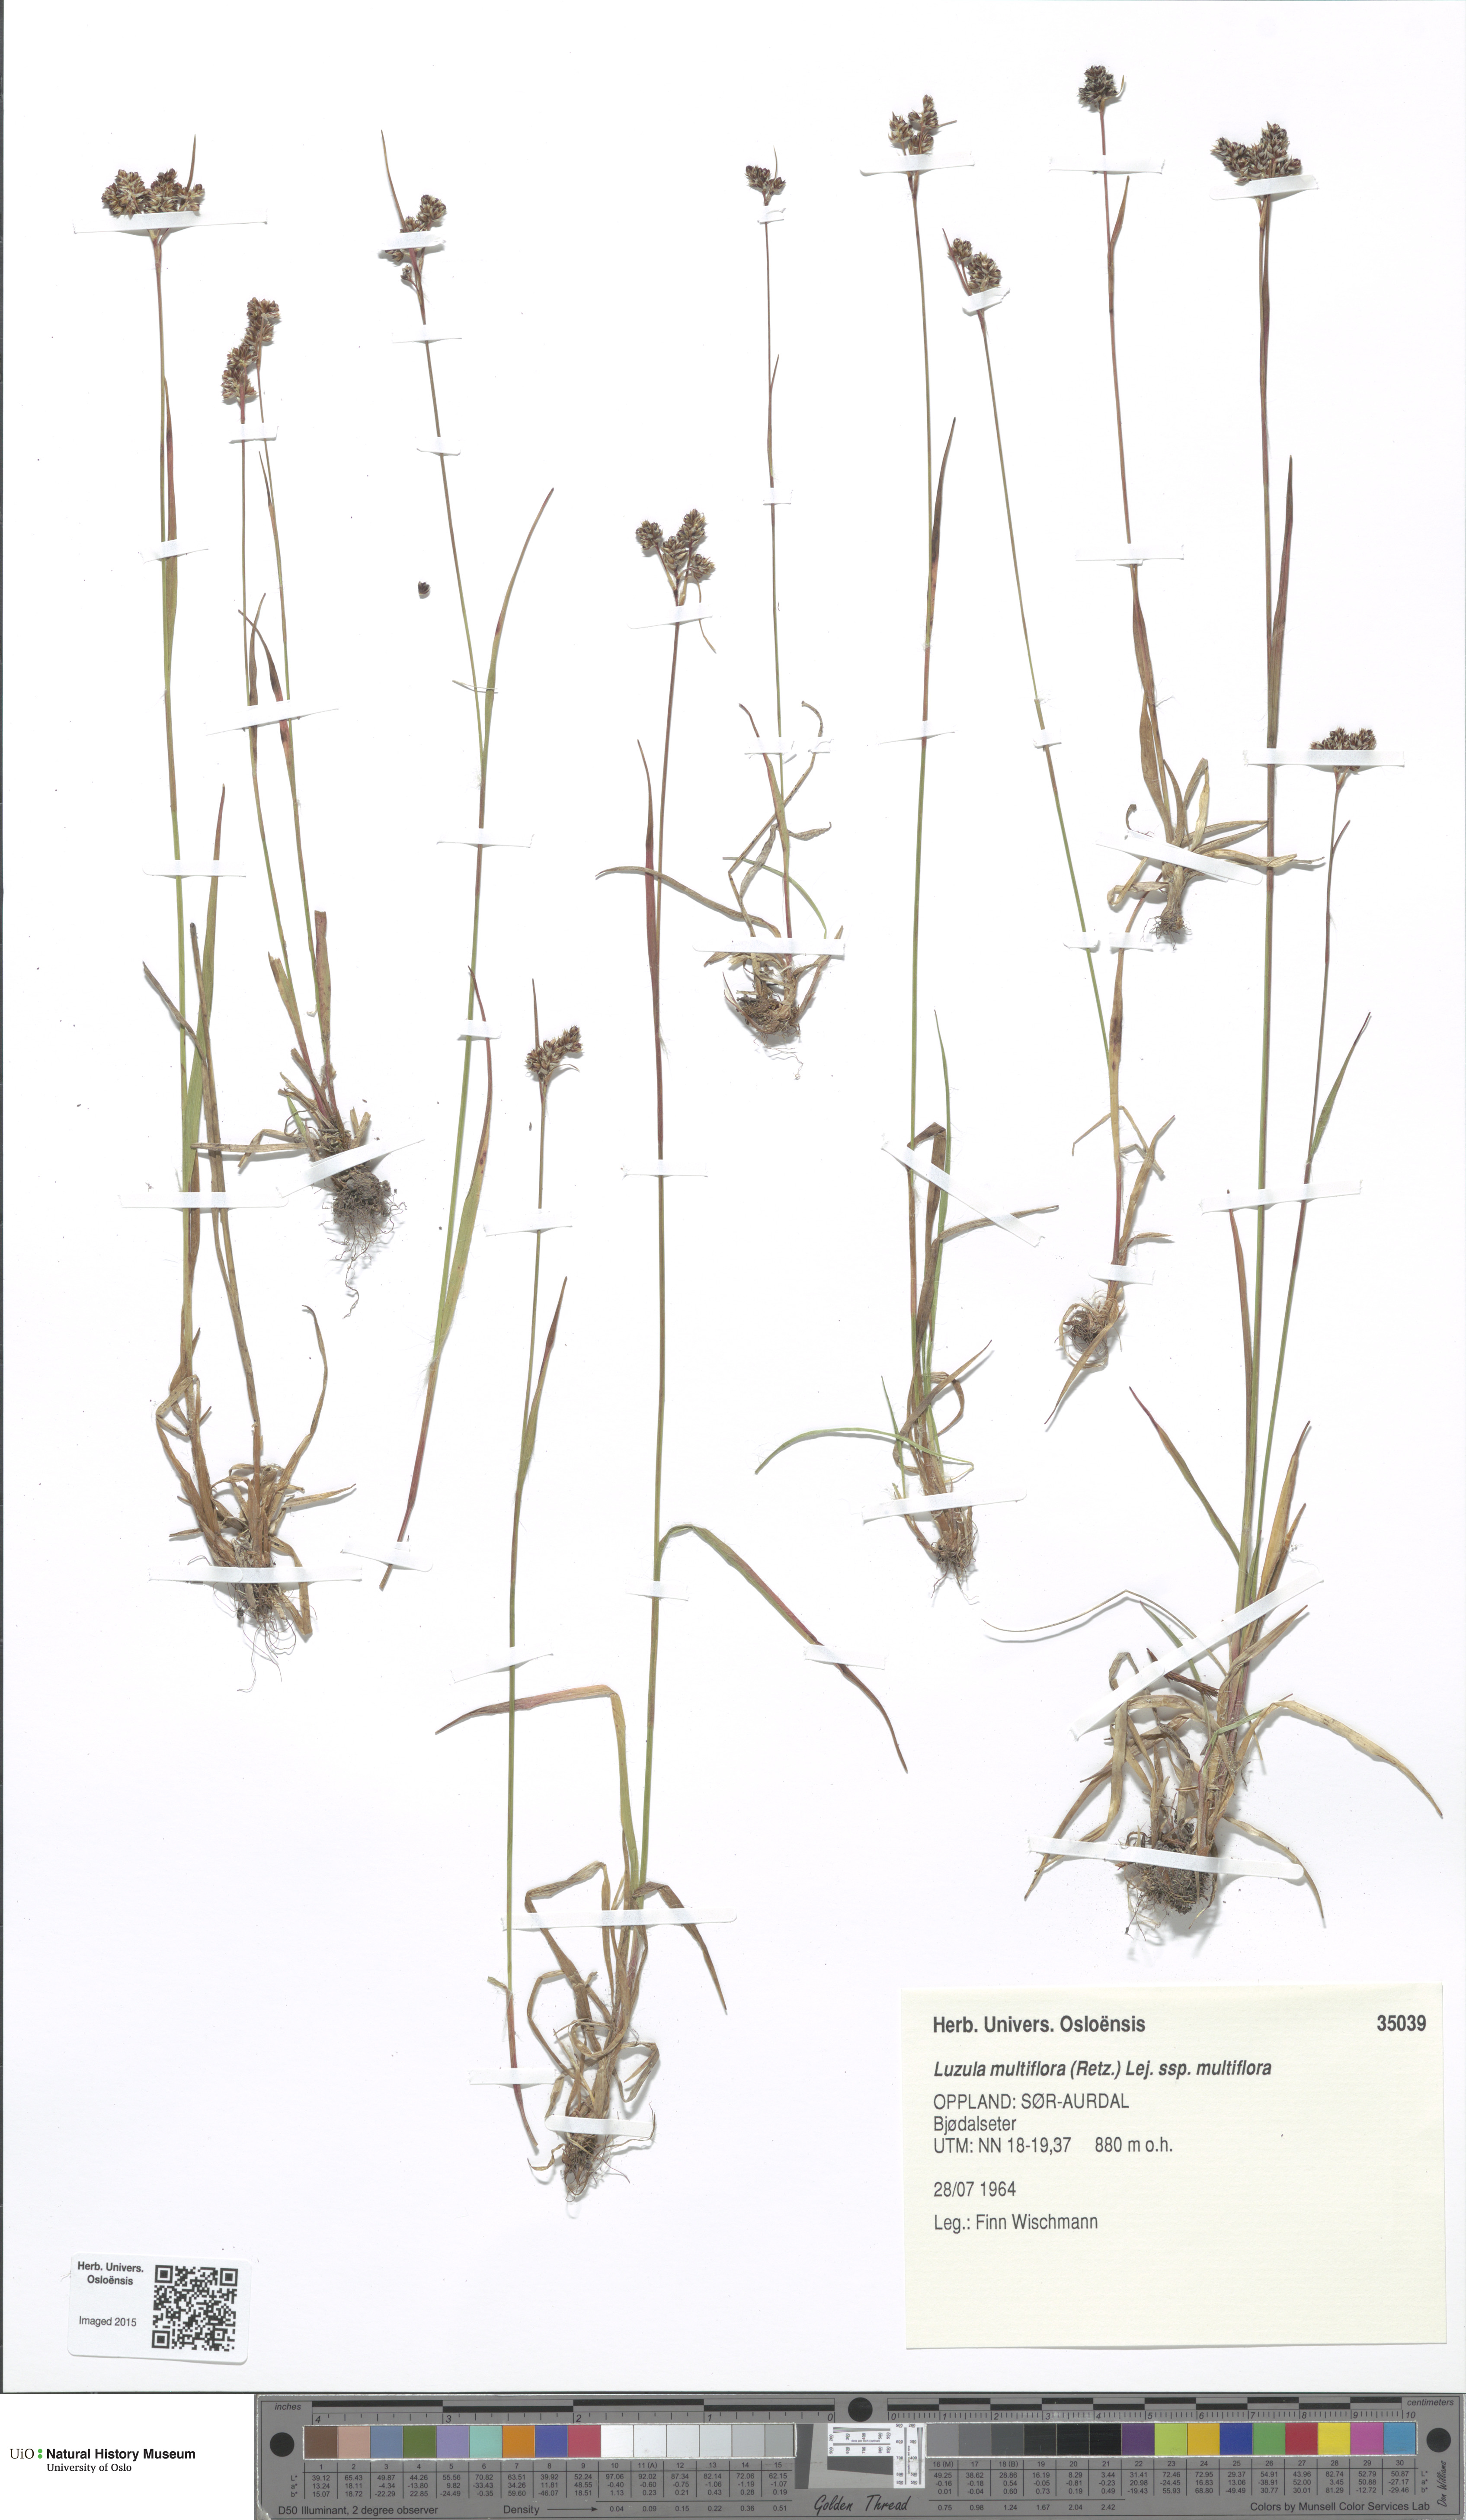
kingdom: Plantae
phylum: Tracheophyta
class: Liliopsida
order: Poales
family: Juncaceae
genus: Luzula
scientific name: Luzula multiflora
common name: Heath wood-rush
